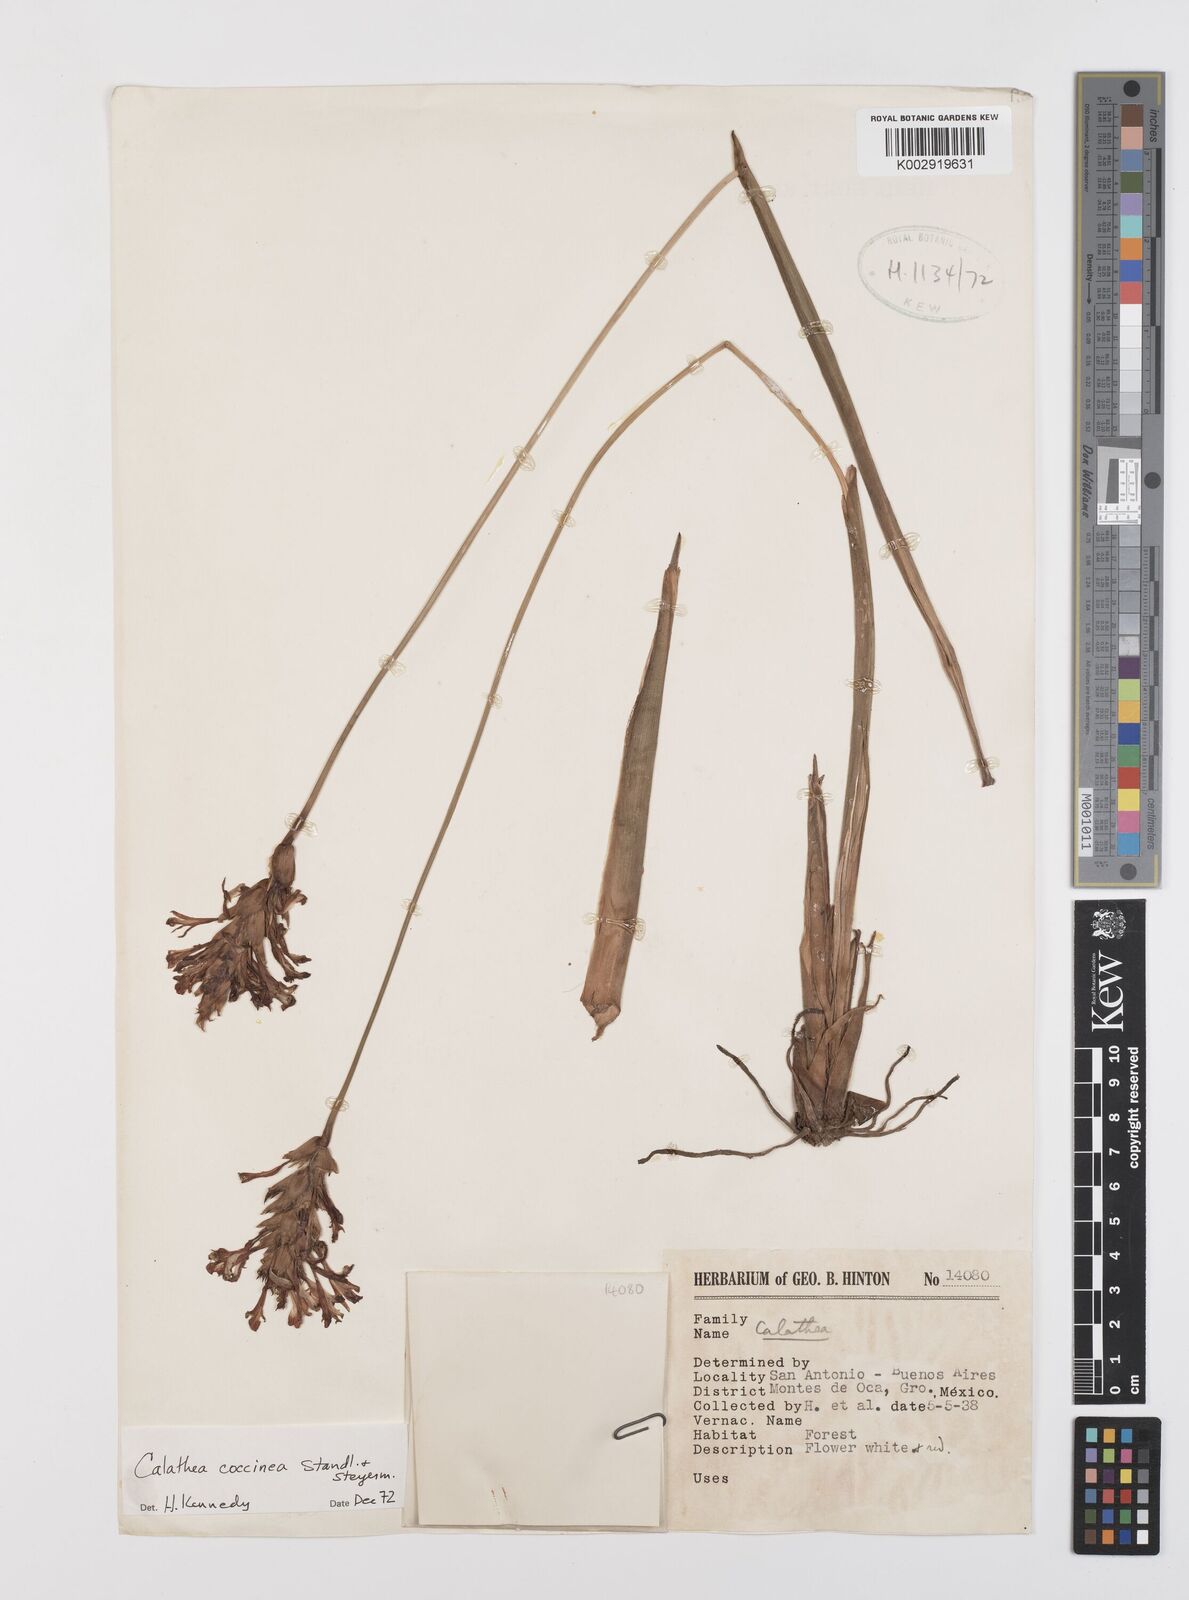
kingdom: Plantae
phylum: Tracheophyta
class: Liliopsida
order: Zingiberales
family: Marantaceae
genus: Goeppertia
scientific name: Goeppertia coccinea
